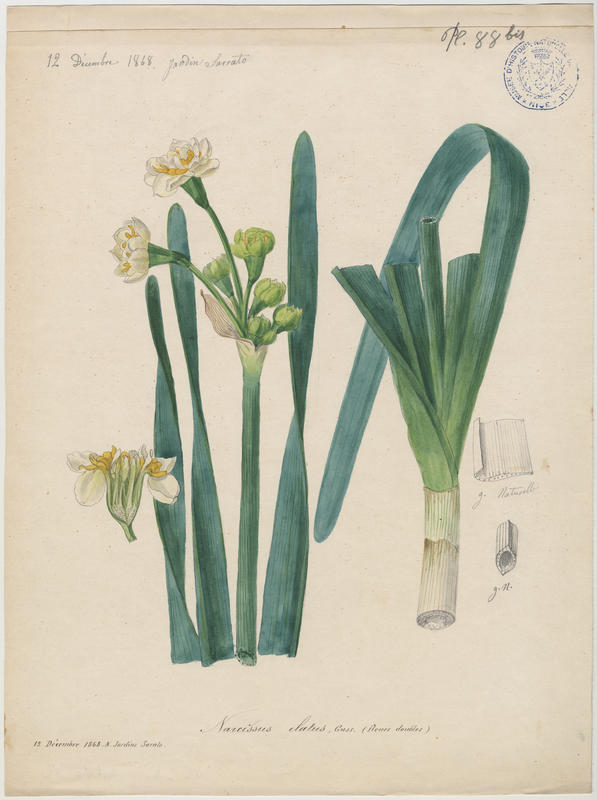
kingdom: Plantae
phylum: Tracheophyta
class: Liliopsida
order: Asparagales
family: Amaryllidaceae
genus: Narcissus
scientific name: Narcissus tazetta
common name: Bunch-flowered daffodil
